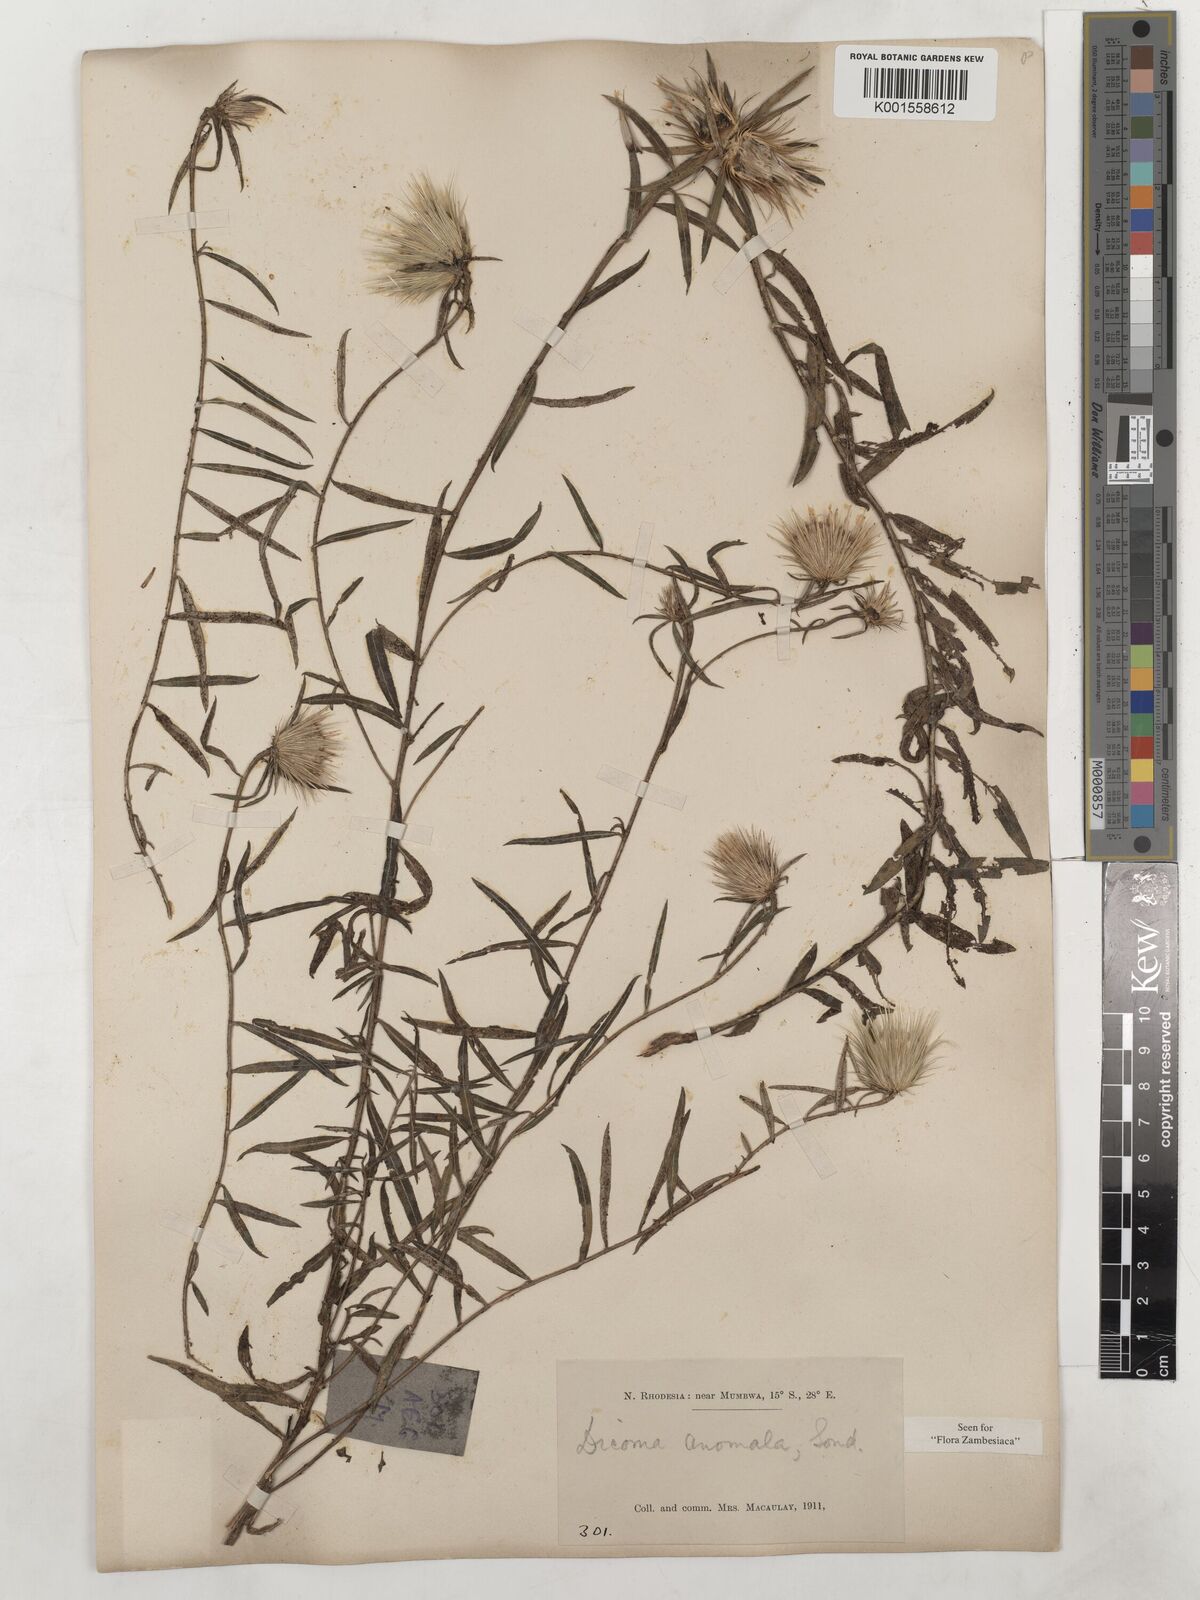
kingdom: Plantae
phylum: Tracheophyta
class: Magnoliopsida
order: Asterales
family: Asteraceae
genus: Dicoma
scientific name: Dicoma anomala
